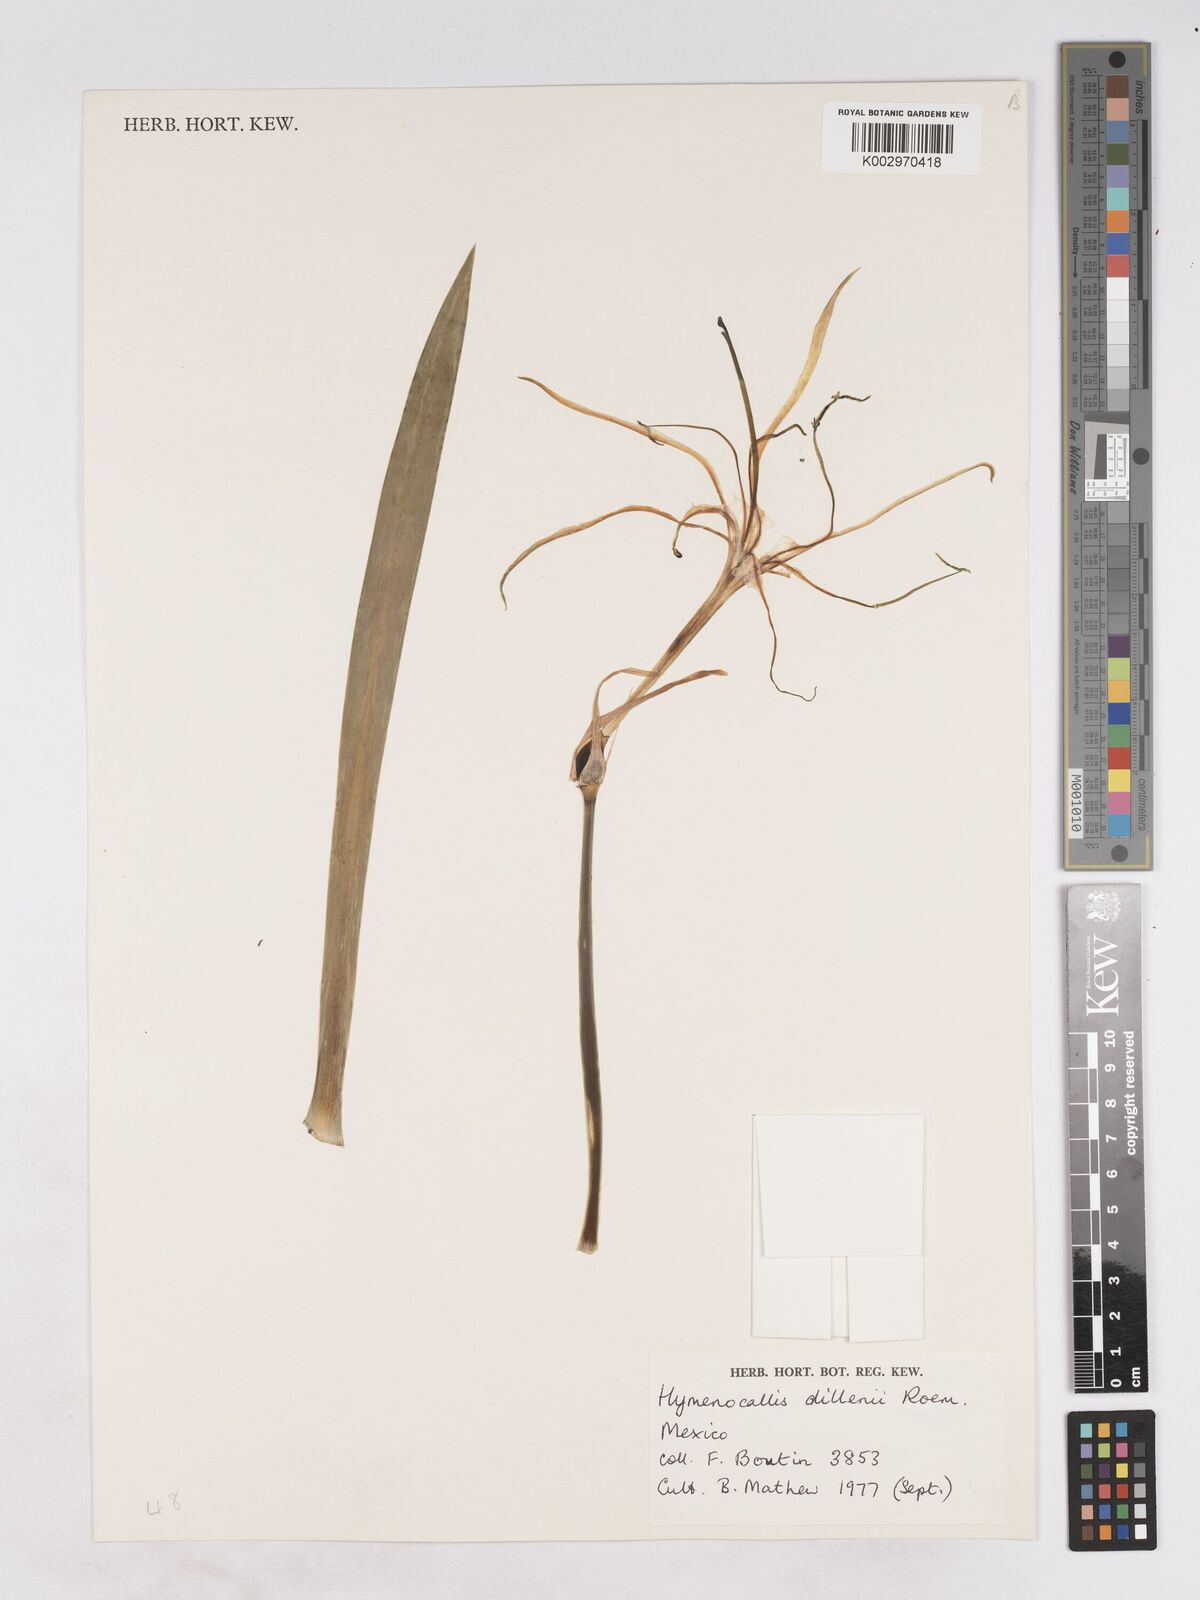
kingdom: Plantae
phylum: Tracheophyta
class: Liliopsida
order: Asparagales
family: Amaryllidaceae
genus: Hymenocallis
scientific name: Hymenocallis harrisiana
